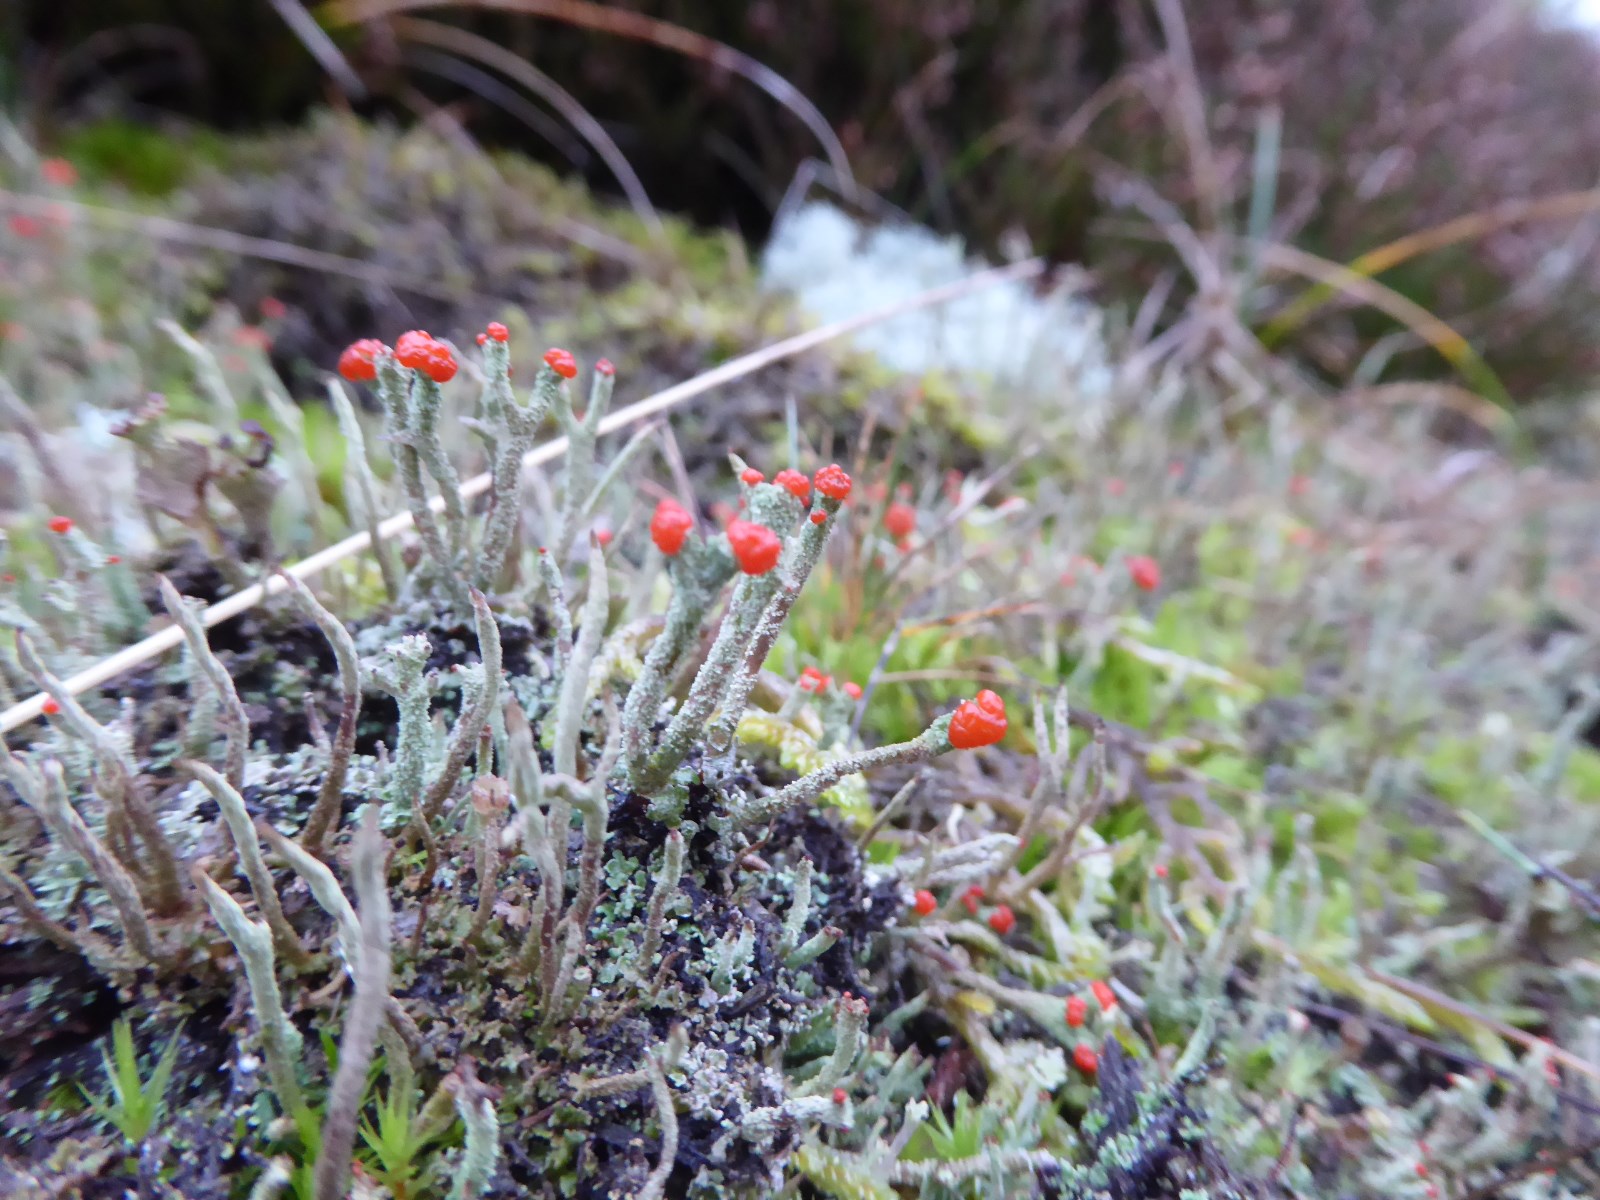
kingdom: Fungi
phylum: Ascomycota
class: Lecanoromycetes
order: Lecanorales
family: Cladoniaceae
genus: Cladonia
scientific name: Cladonia floerkeana
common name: lakrød bægerlav
